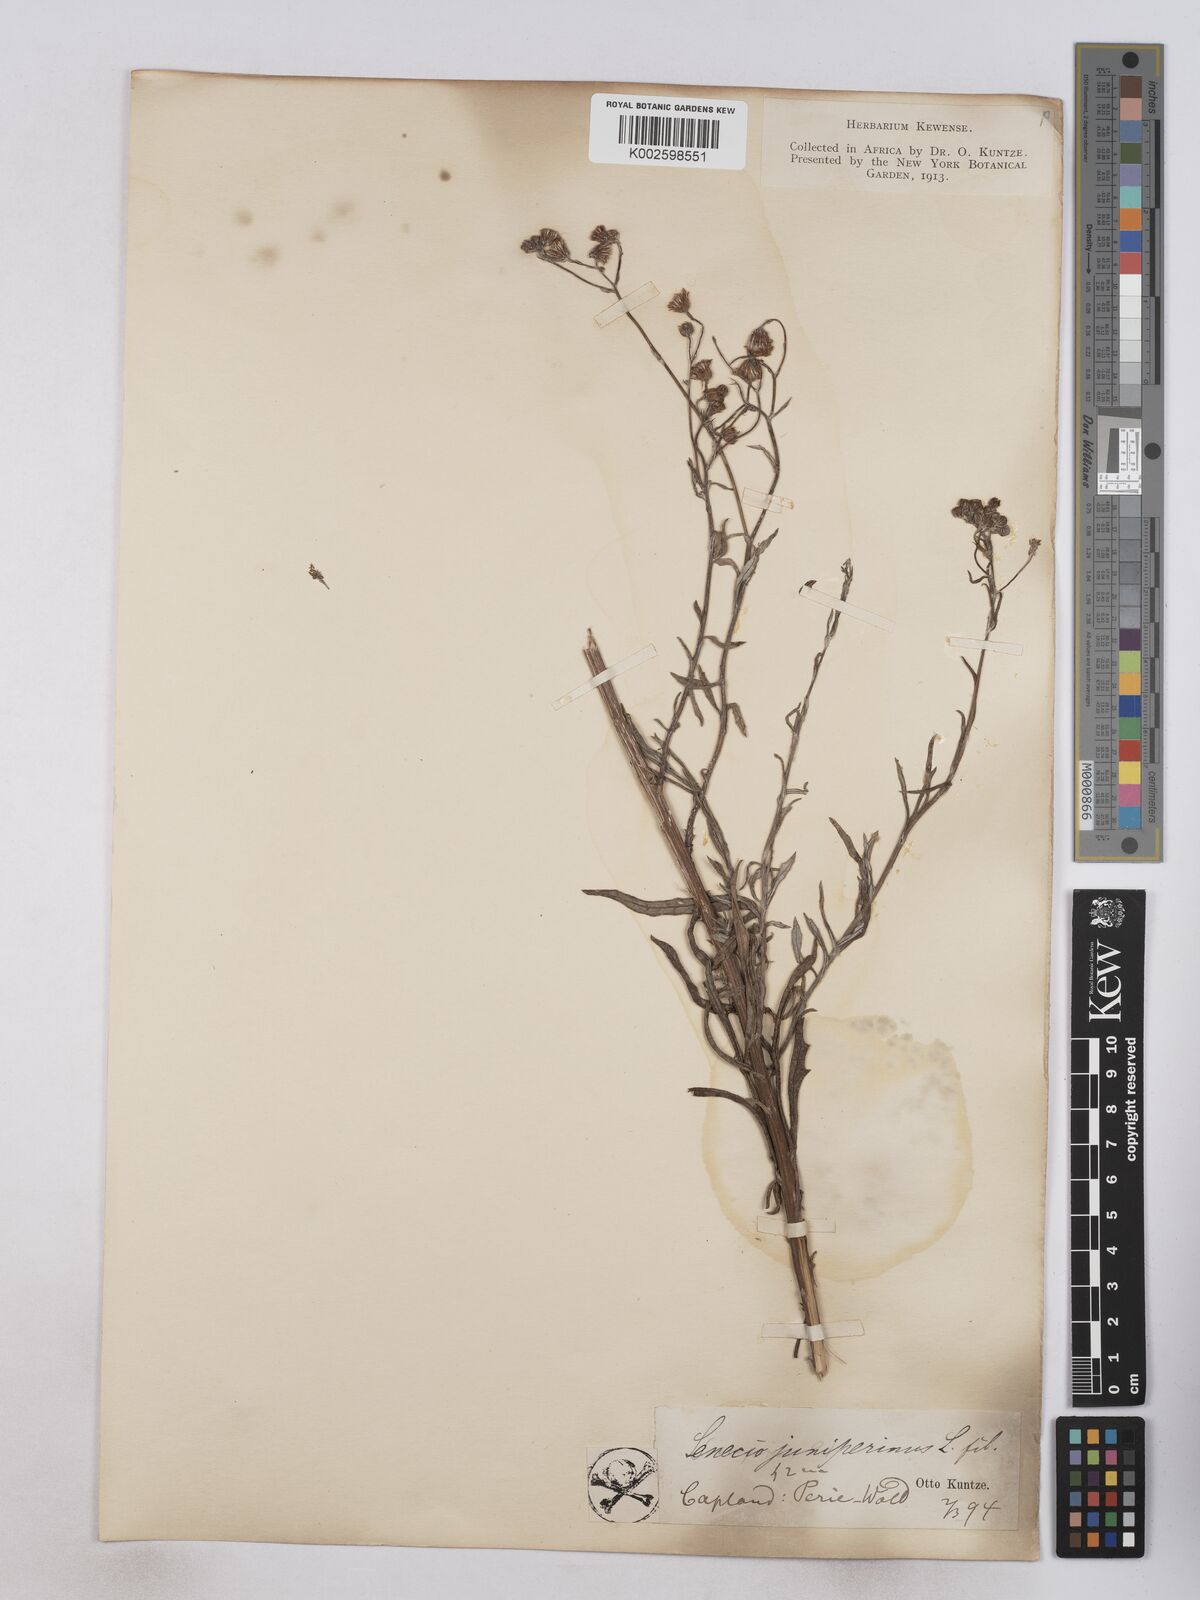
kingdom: Plantae
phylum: Tracheophyta
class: Magnoliopsida
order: Asterales
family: Asteraceae
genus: Senecio
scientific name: Senecio juniperinus
